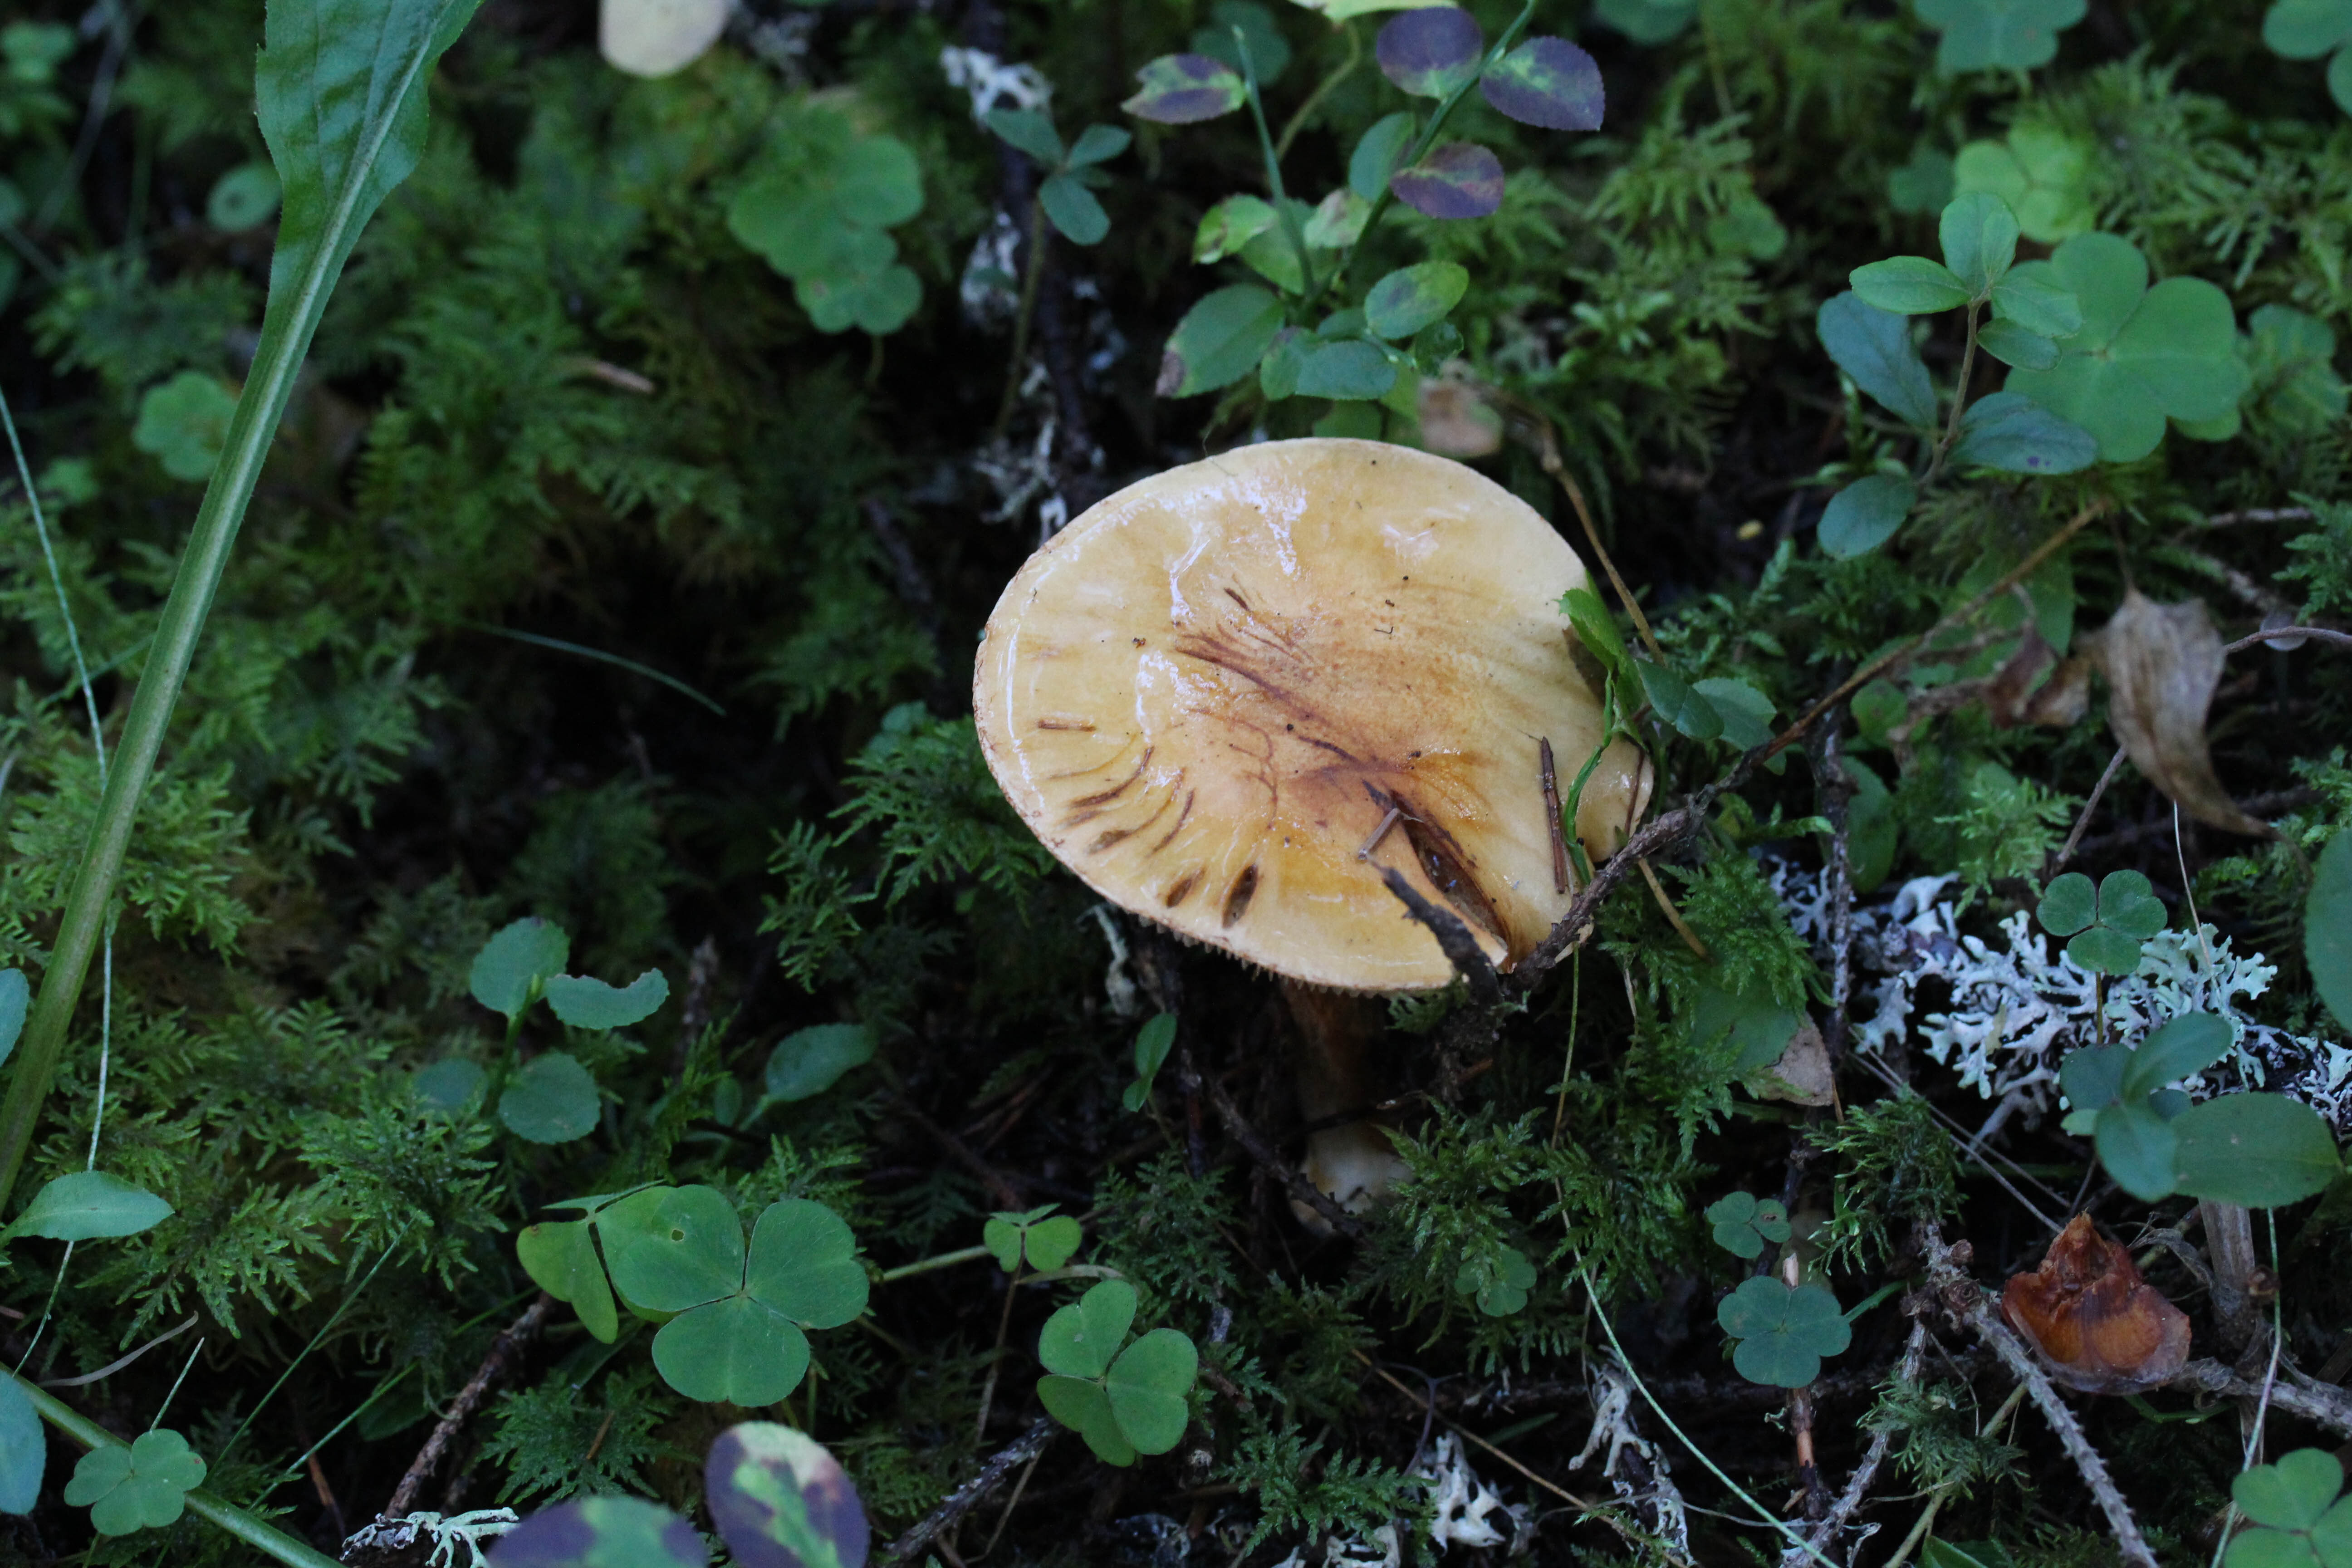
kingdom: Fungi
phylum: Basidiomycota
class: Agaricomycetes
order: Agaricales
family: Cortinariaceae
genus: Cortinarius
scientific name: Cortinarius
